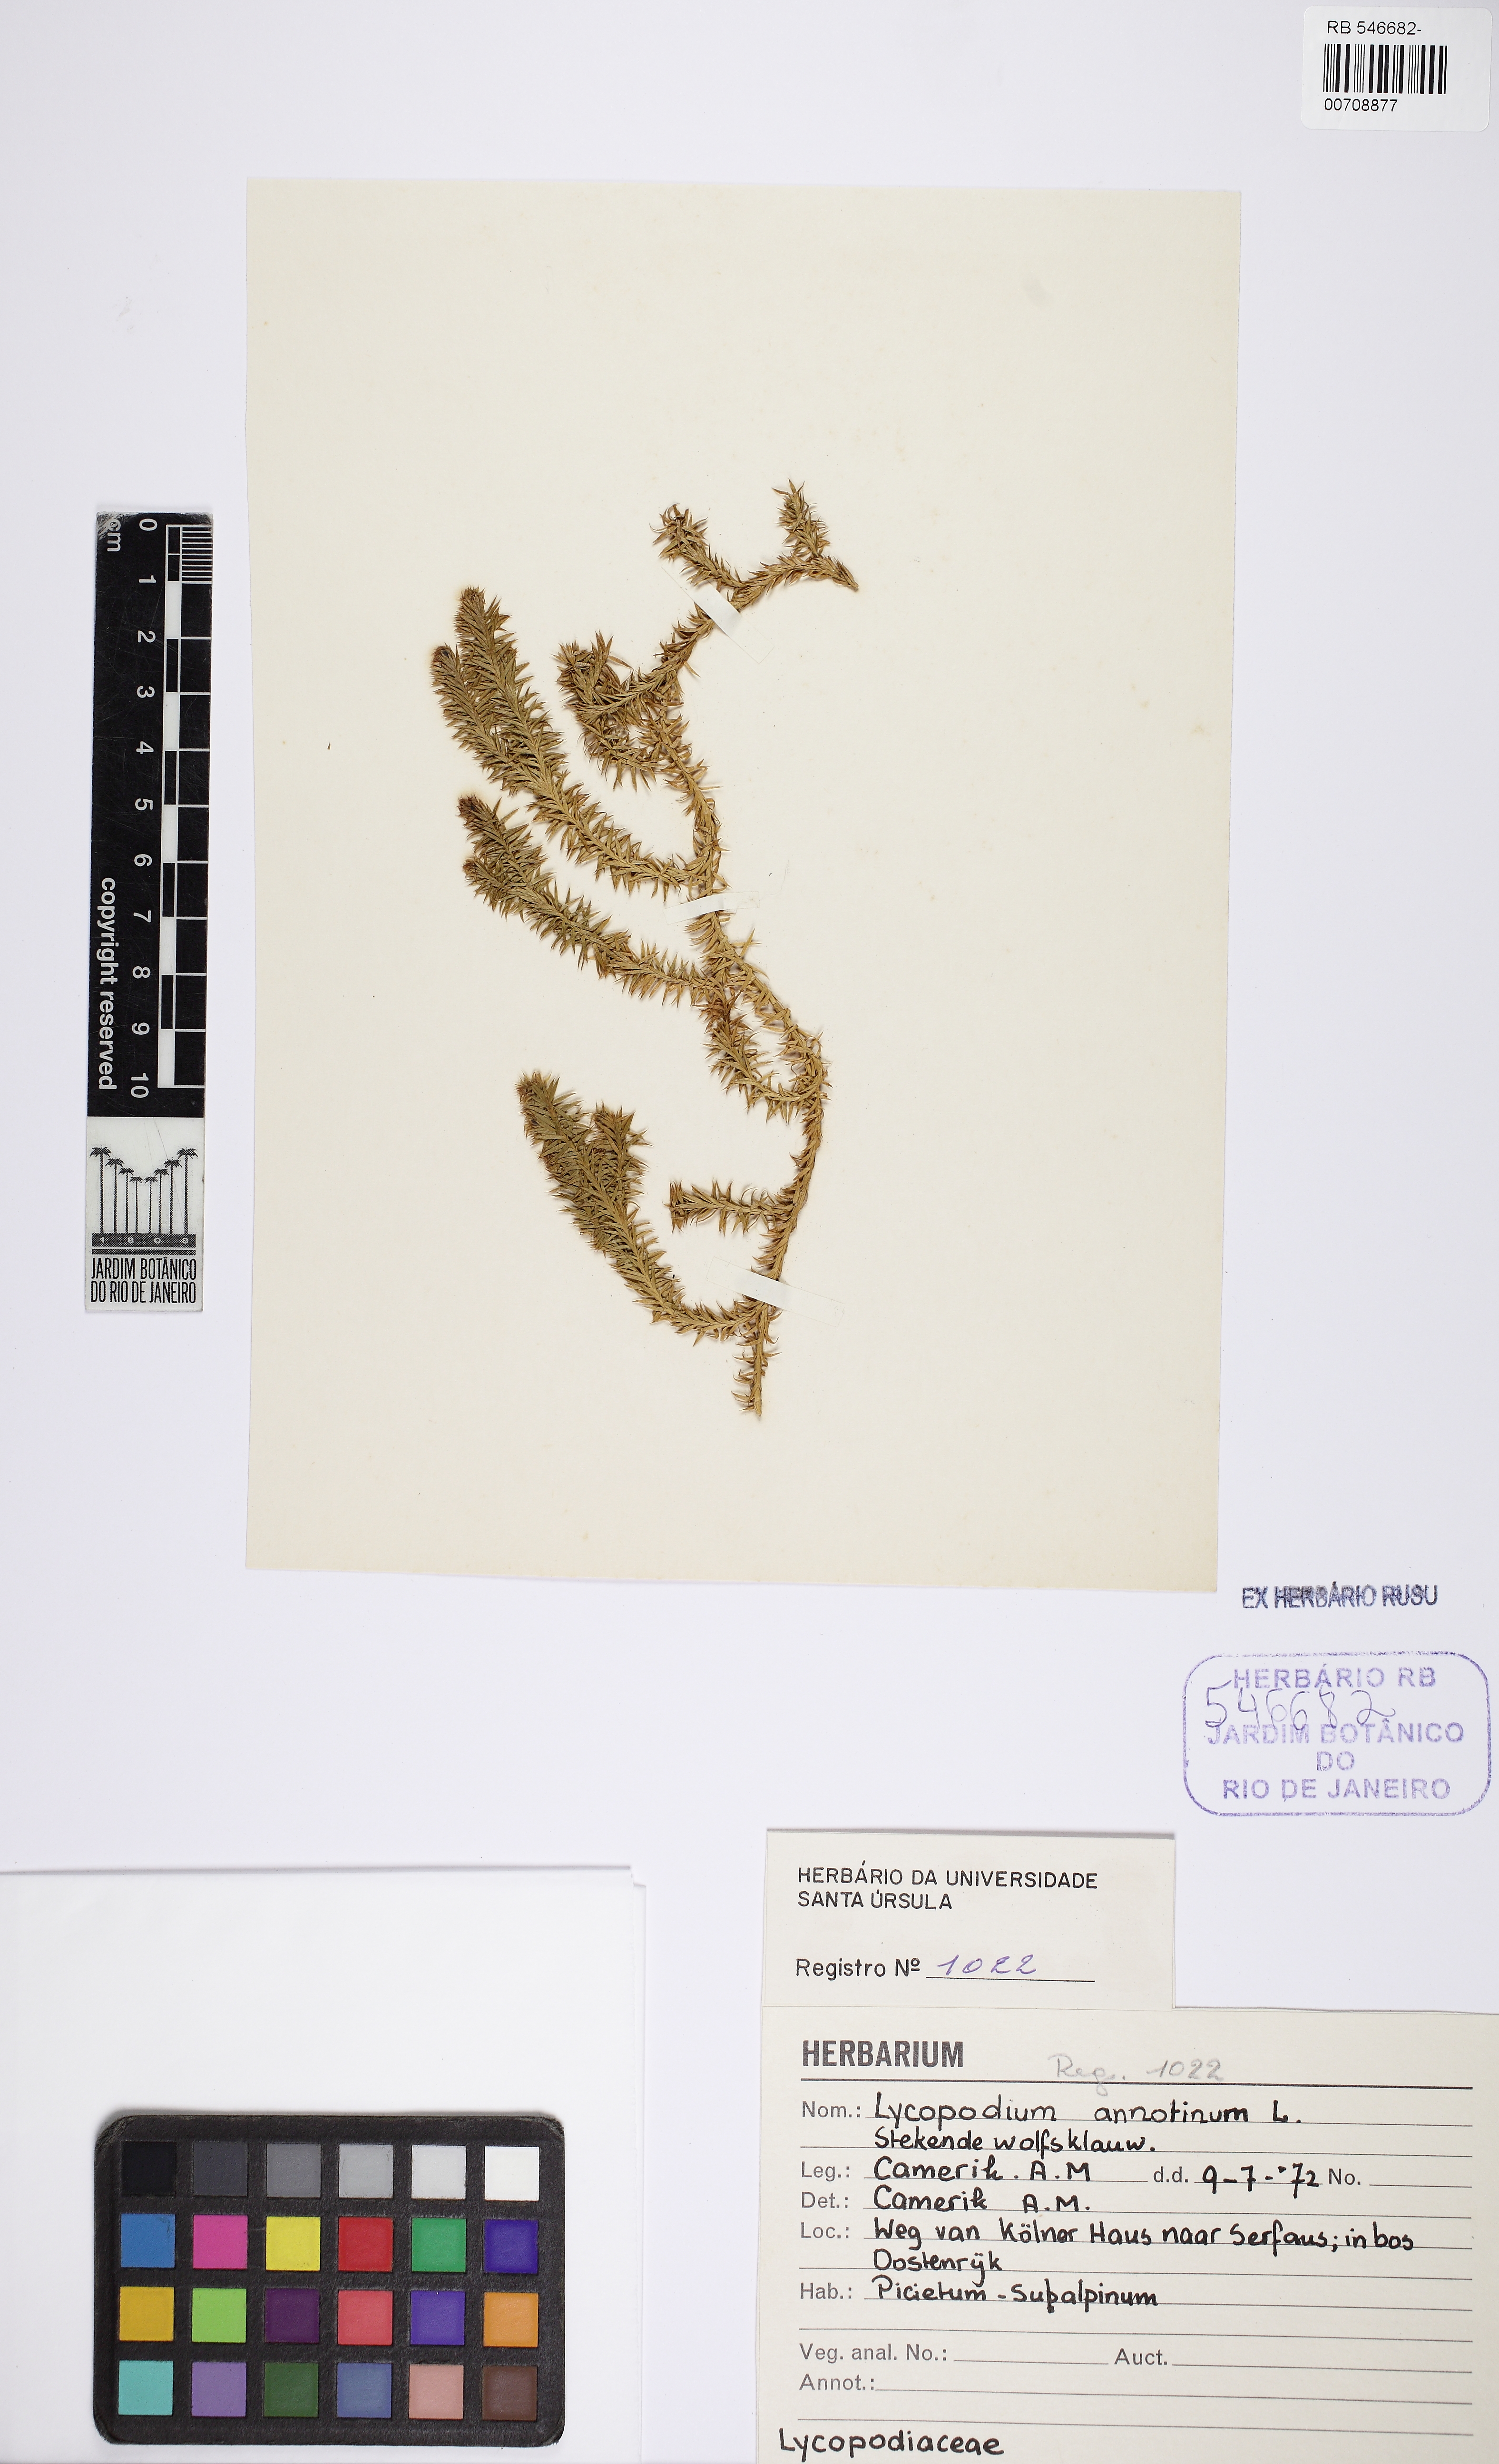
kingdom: Plantae
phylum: Tracheophyta
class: Lycopodiopsida
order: Lycopodiales
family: Lycopodiaceae
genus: Spinulum
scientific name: Spinulum annotinum
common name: Interrupted club-moss
